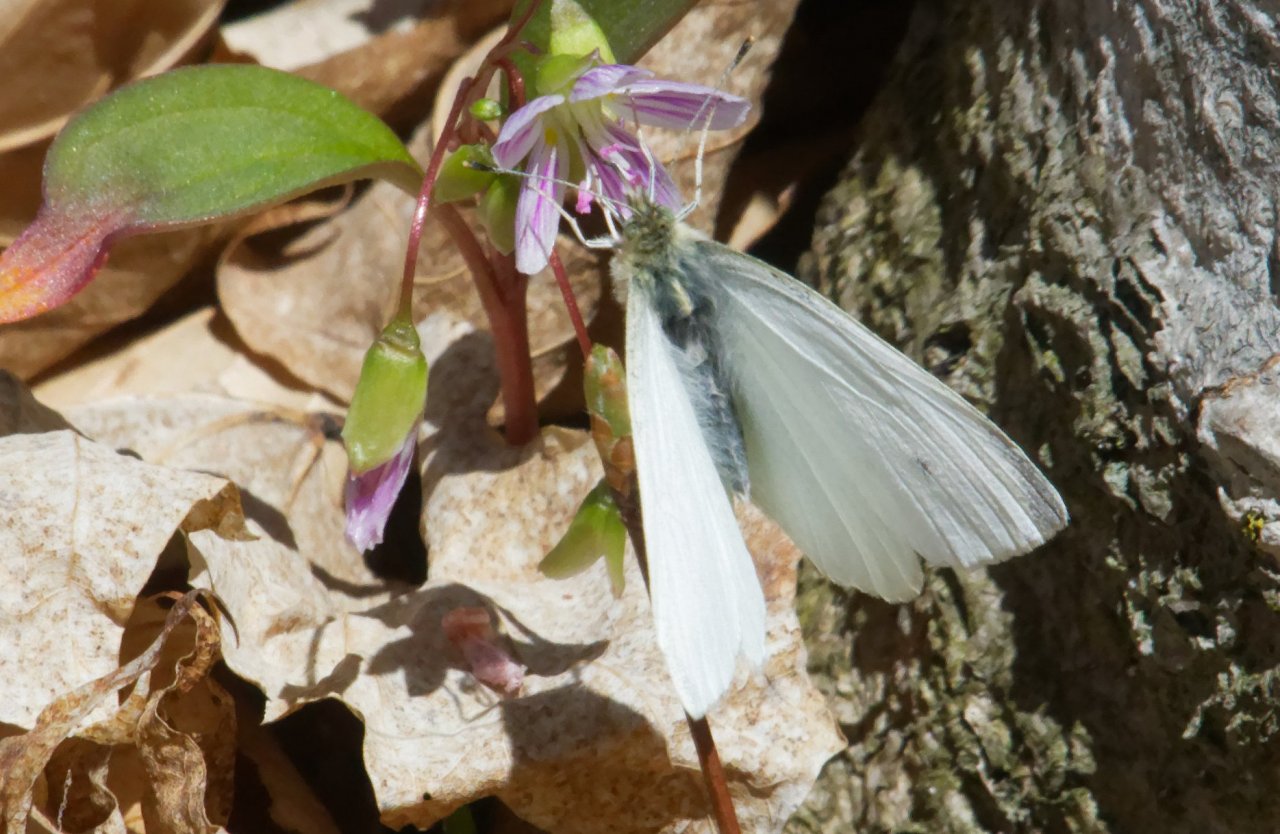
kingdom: Animalia
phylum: Arthropoda
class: Insecta
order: Lepidoptera
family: Pieridae
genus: Pieris
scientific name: Pieris rapae
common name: Cabbage White
